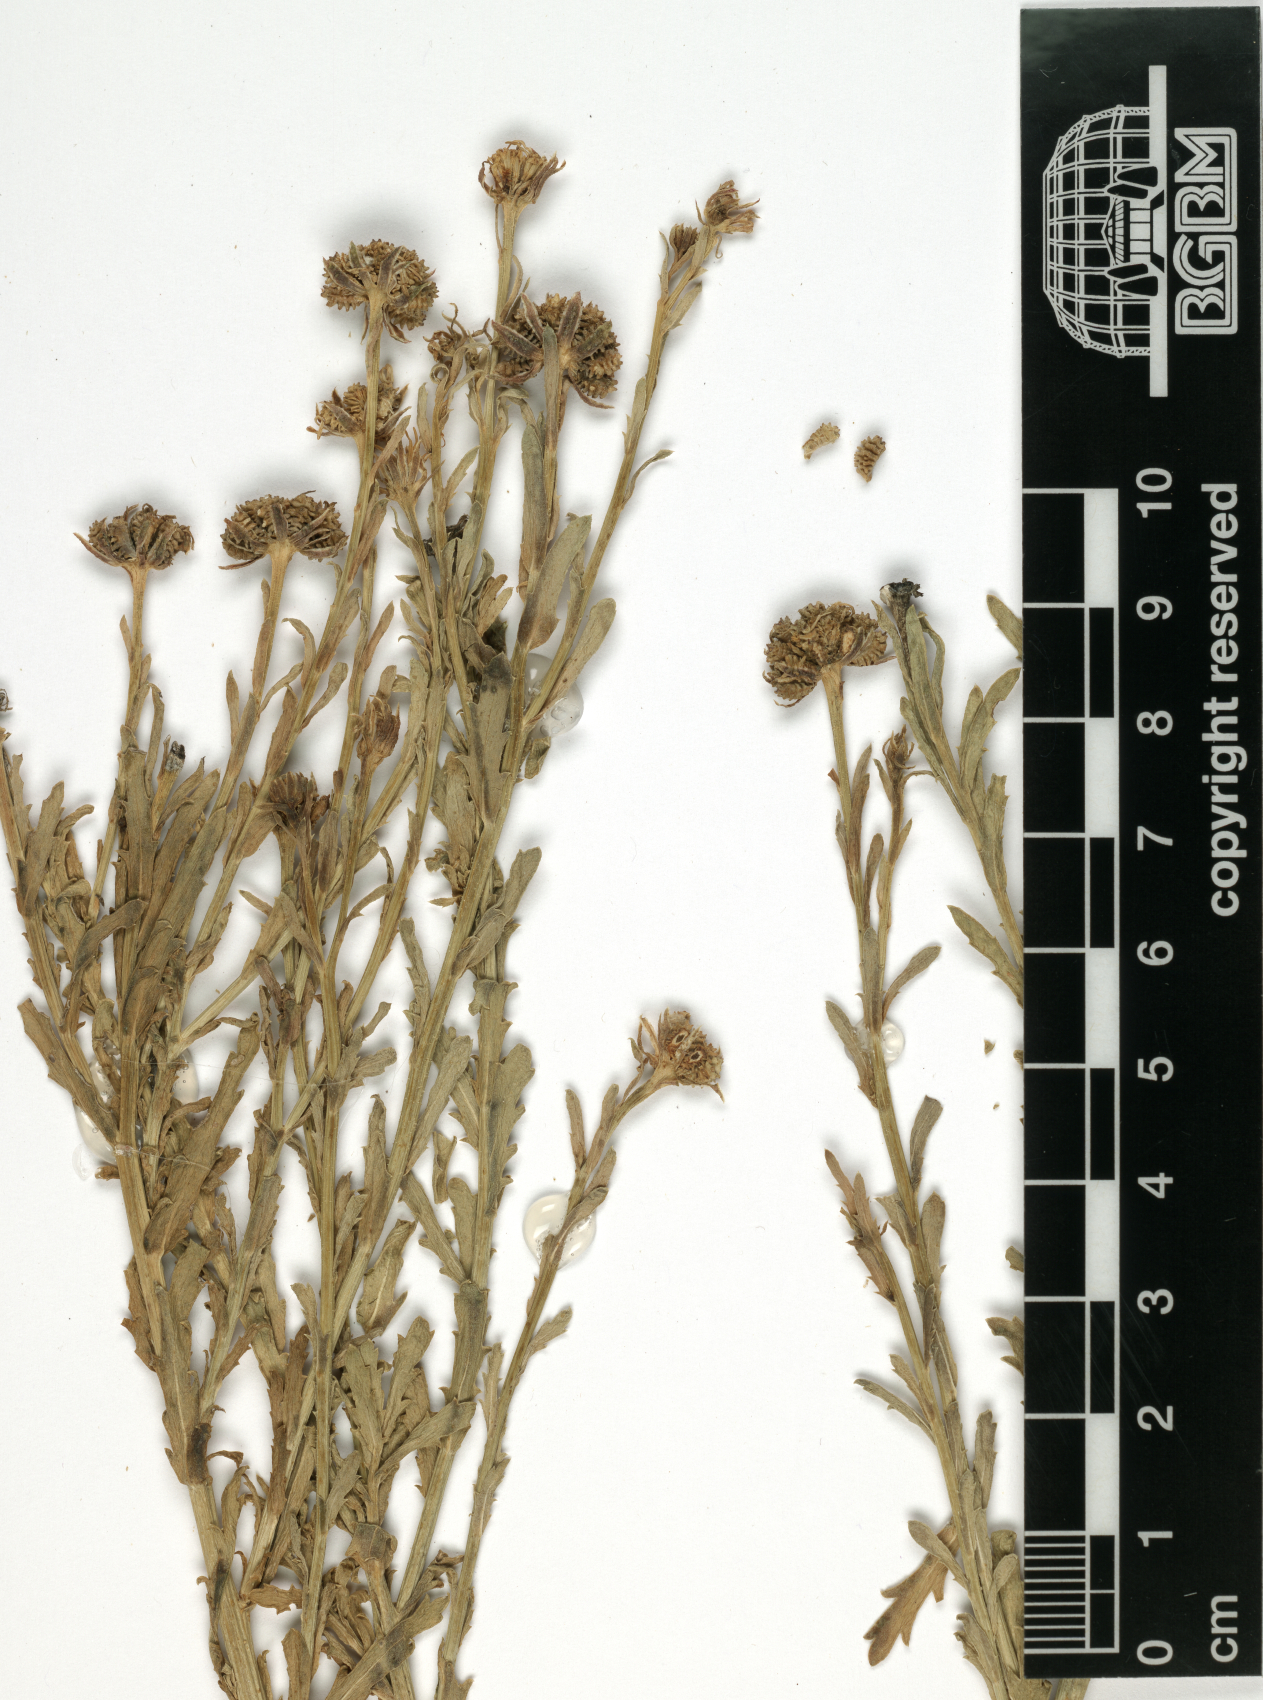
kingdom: Plantae
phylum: Tracheophyta
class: Magnoliopsida
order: Asterales
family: Asteraceae
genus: Osteospermum
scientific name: Osteospermum muricatum
